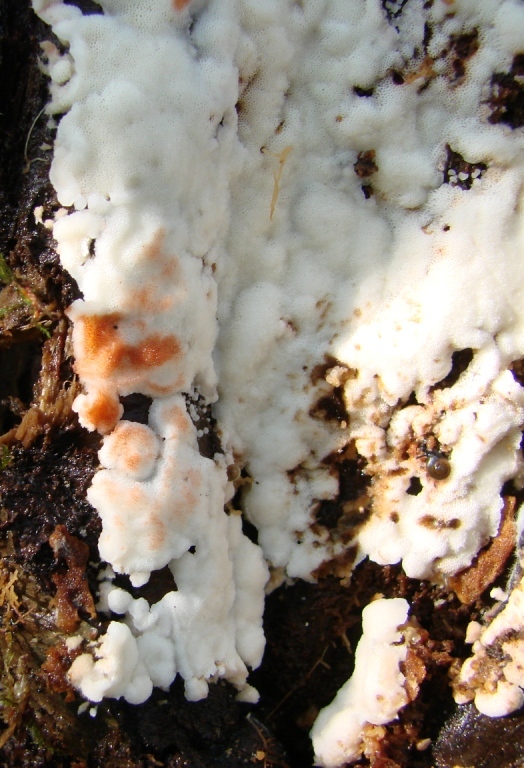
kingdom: Fungi
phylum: Basidiomycota
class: Agaricomycetes
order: Polyporales
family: Meripilaceae
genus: Rigidoporus
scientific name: Rigidoporus sanguinolentus
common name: blod-skorpeporesvamp
